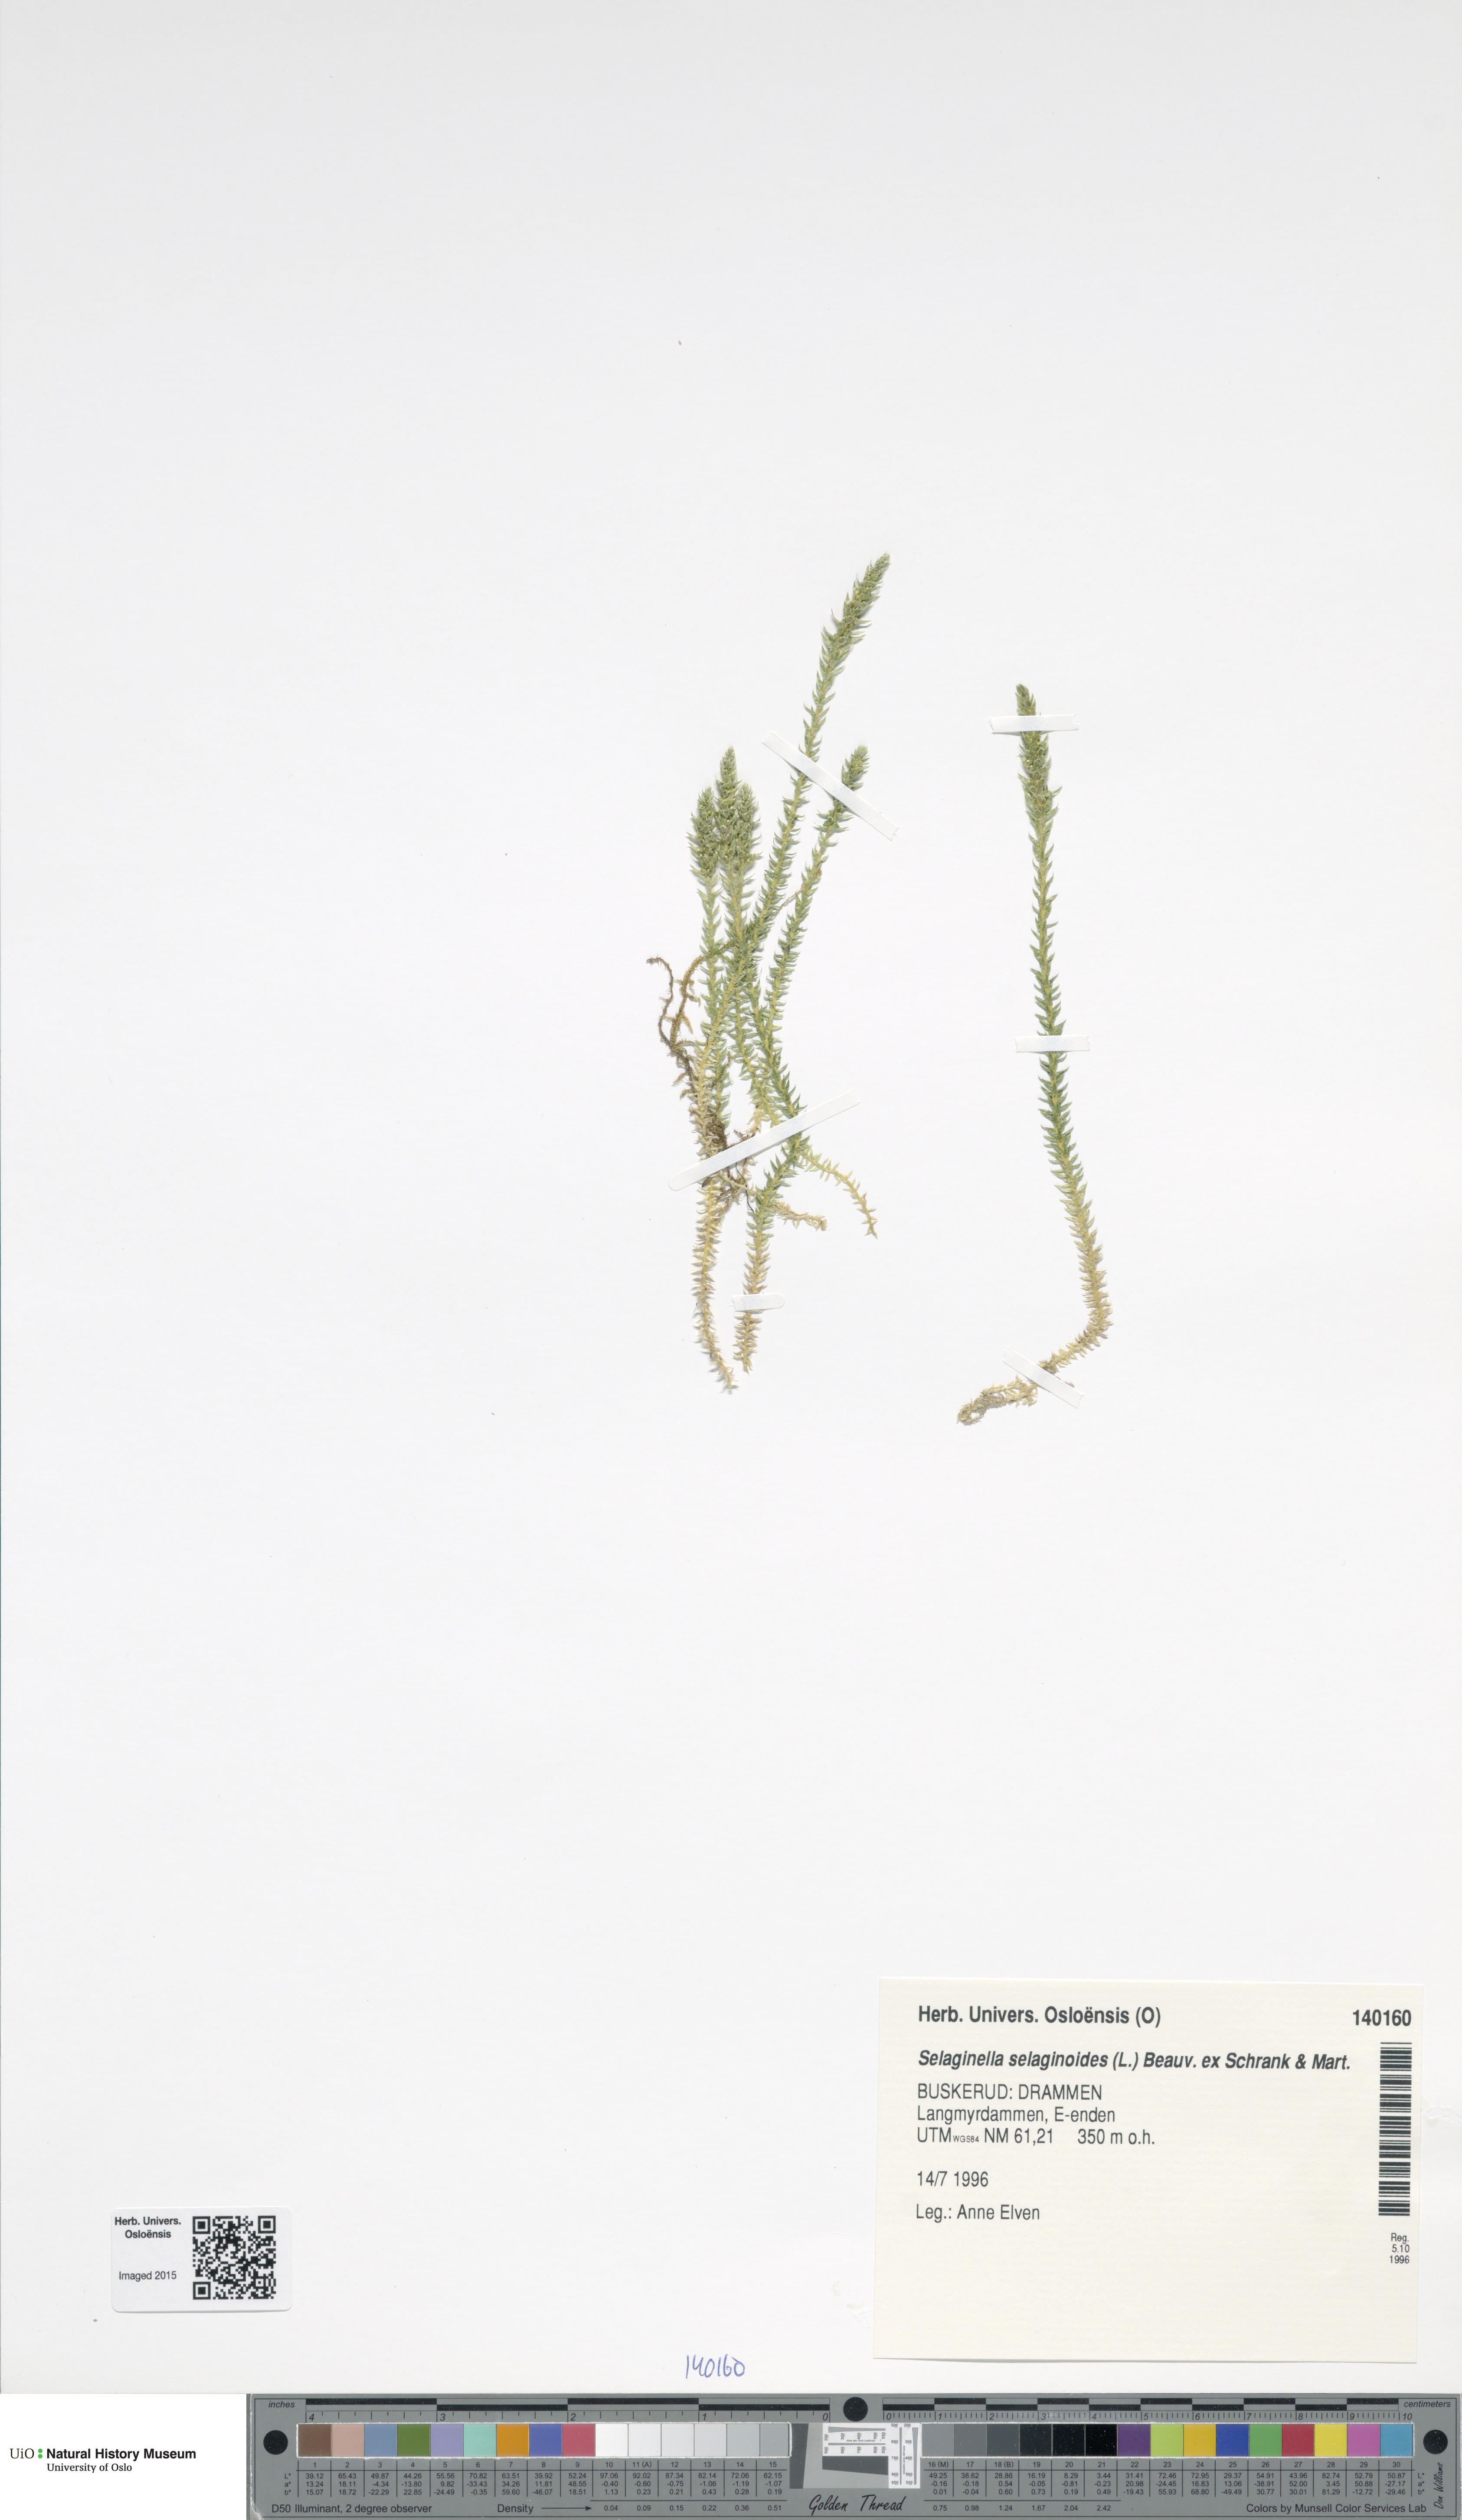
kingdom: Plantae
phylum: Tracheophyta
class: Lycopodiopsida
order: Selaginellales
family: Selaginellaceae
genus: Selaginella
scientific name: Selaginella selaginoides
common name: Prickly mountain-moss
